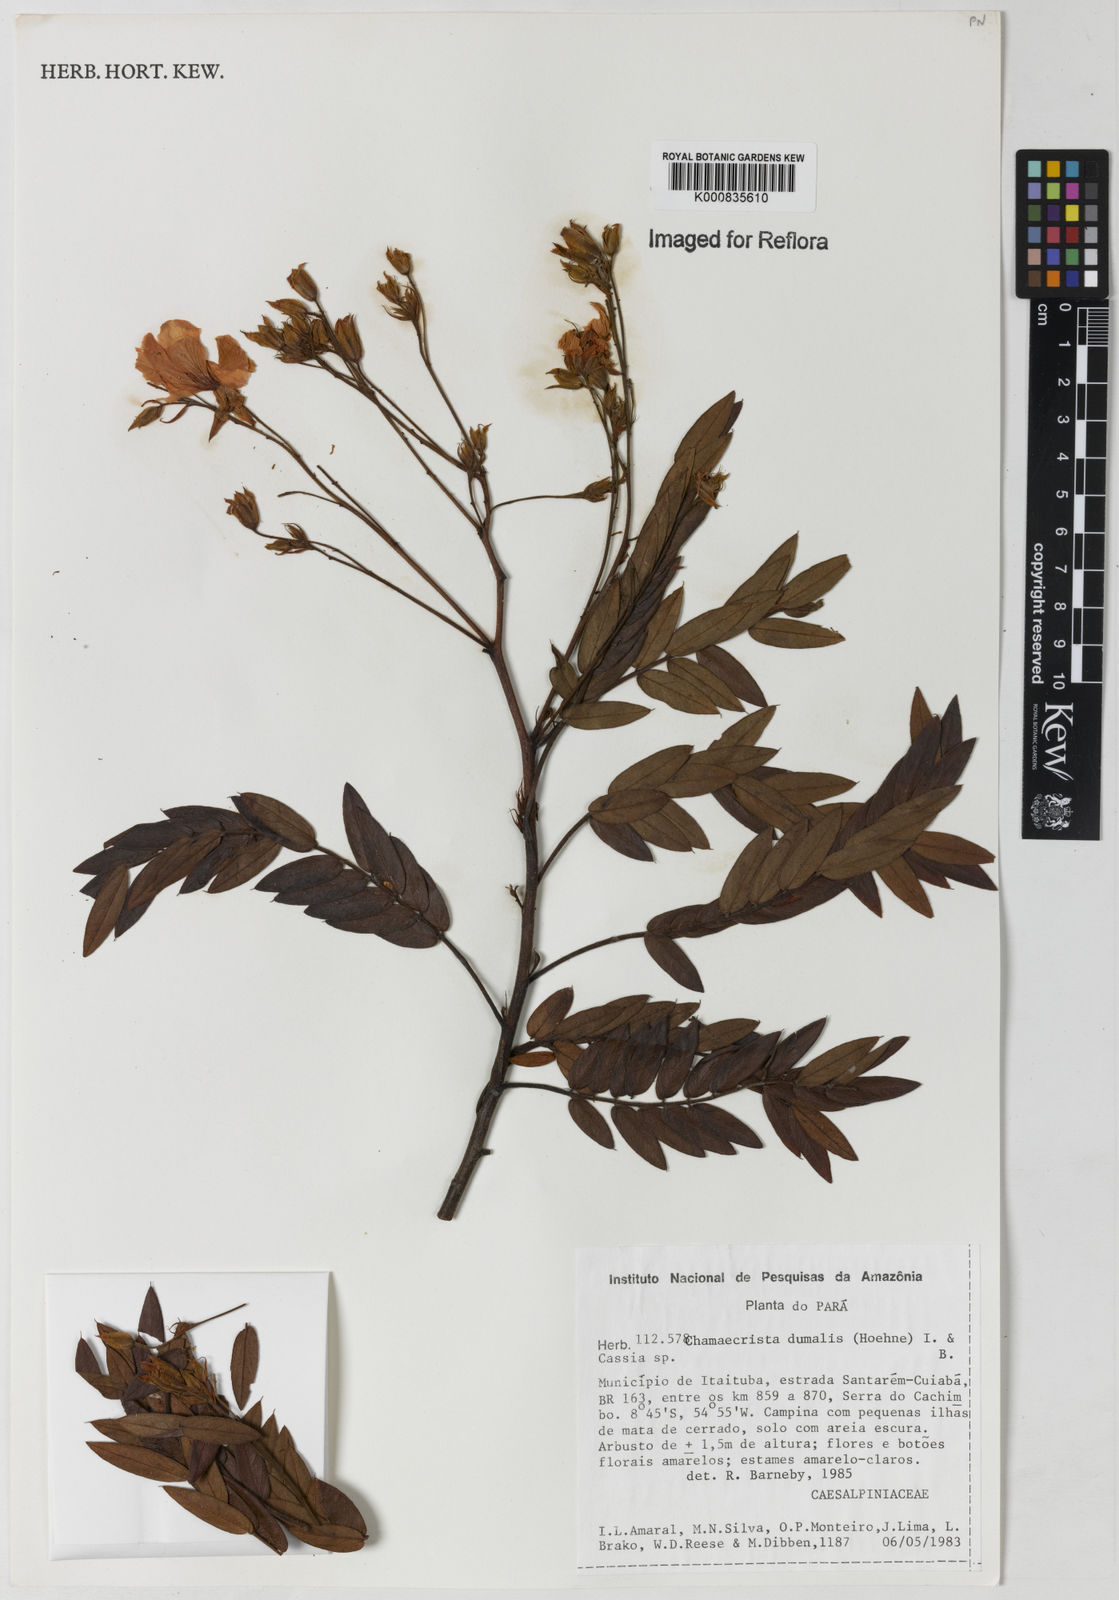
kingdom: Plantae
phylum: Tracheophyta
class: Magnoliopsida
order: Fabales
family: Fabaceae
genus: Chamaecrista
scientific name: Chamaecrista dumalis
